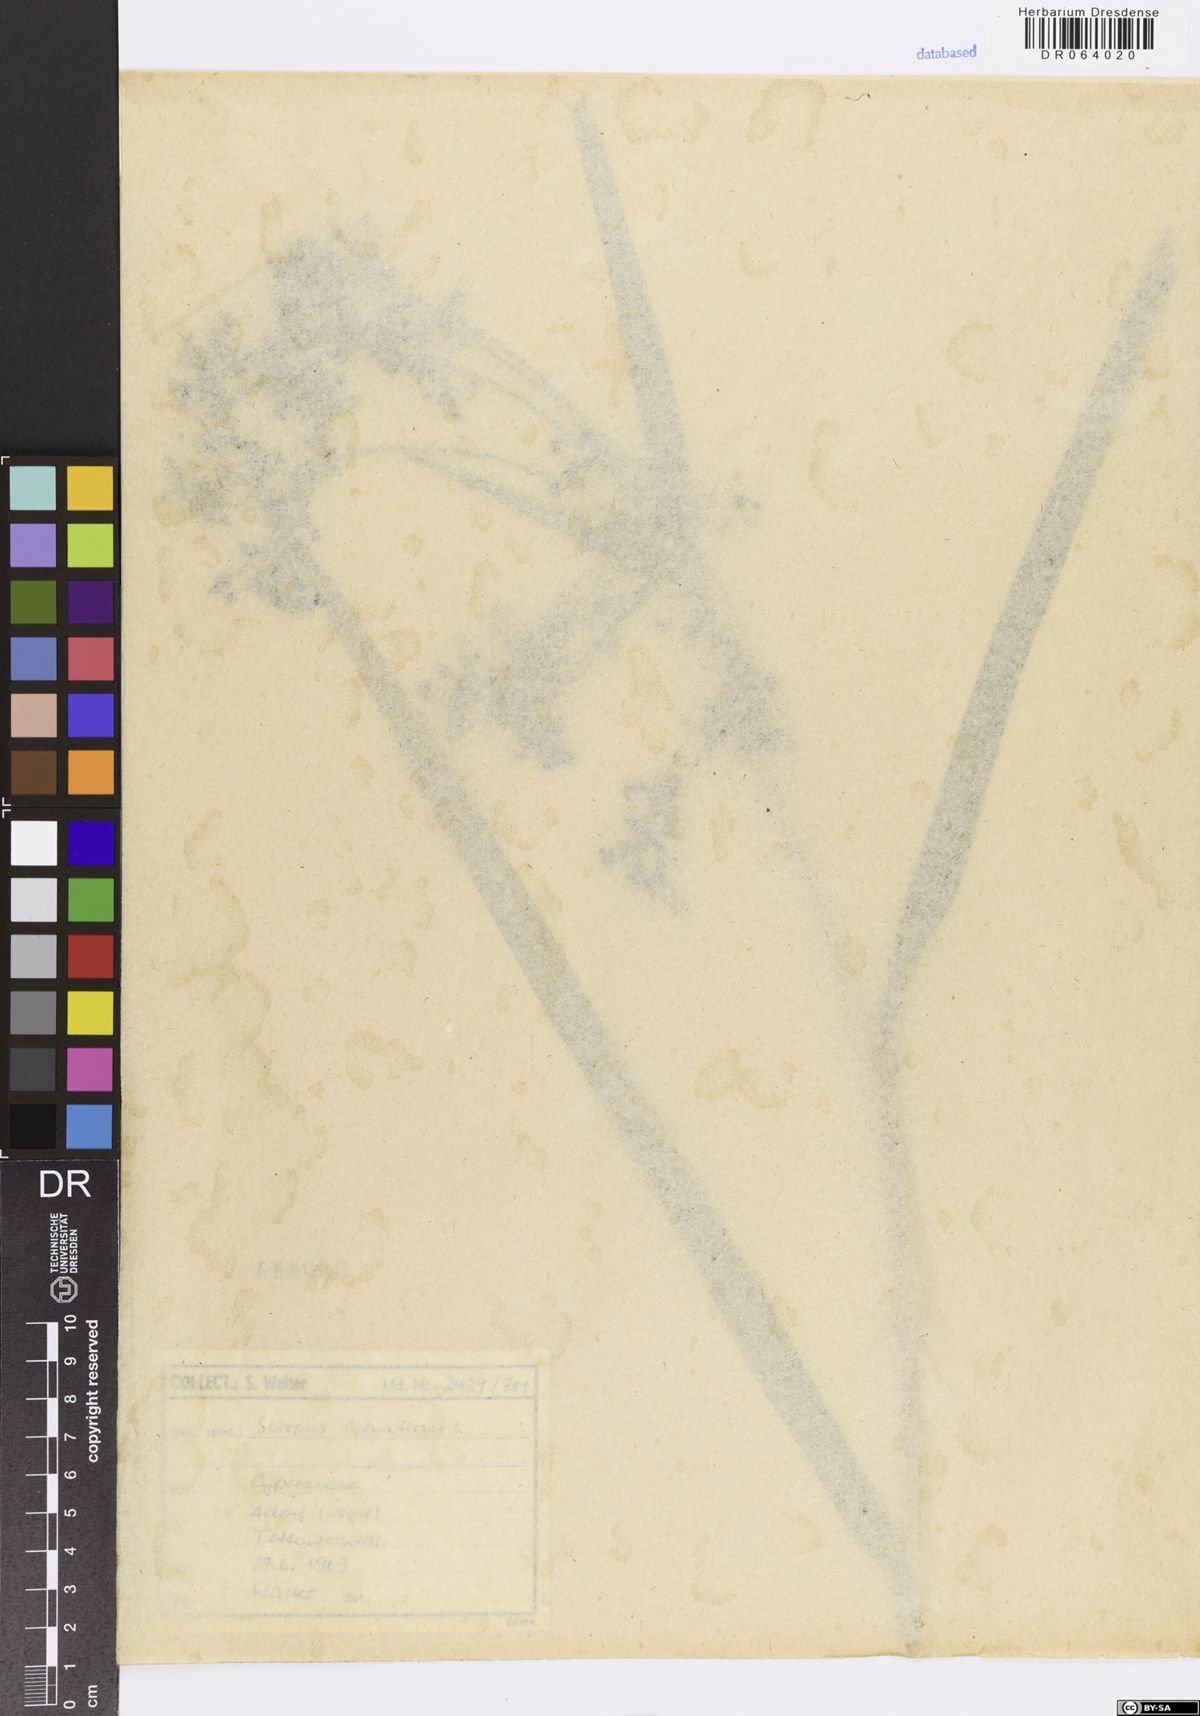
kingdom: Plantae
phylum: Tracheophyta
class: Liliopsida
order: Poales
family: Cyperaceae
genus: Scirpus
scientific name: Scirpus sylvaticus
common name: Wood club-rush
